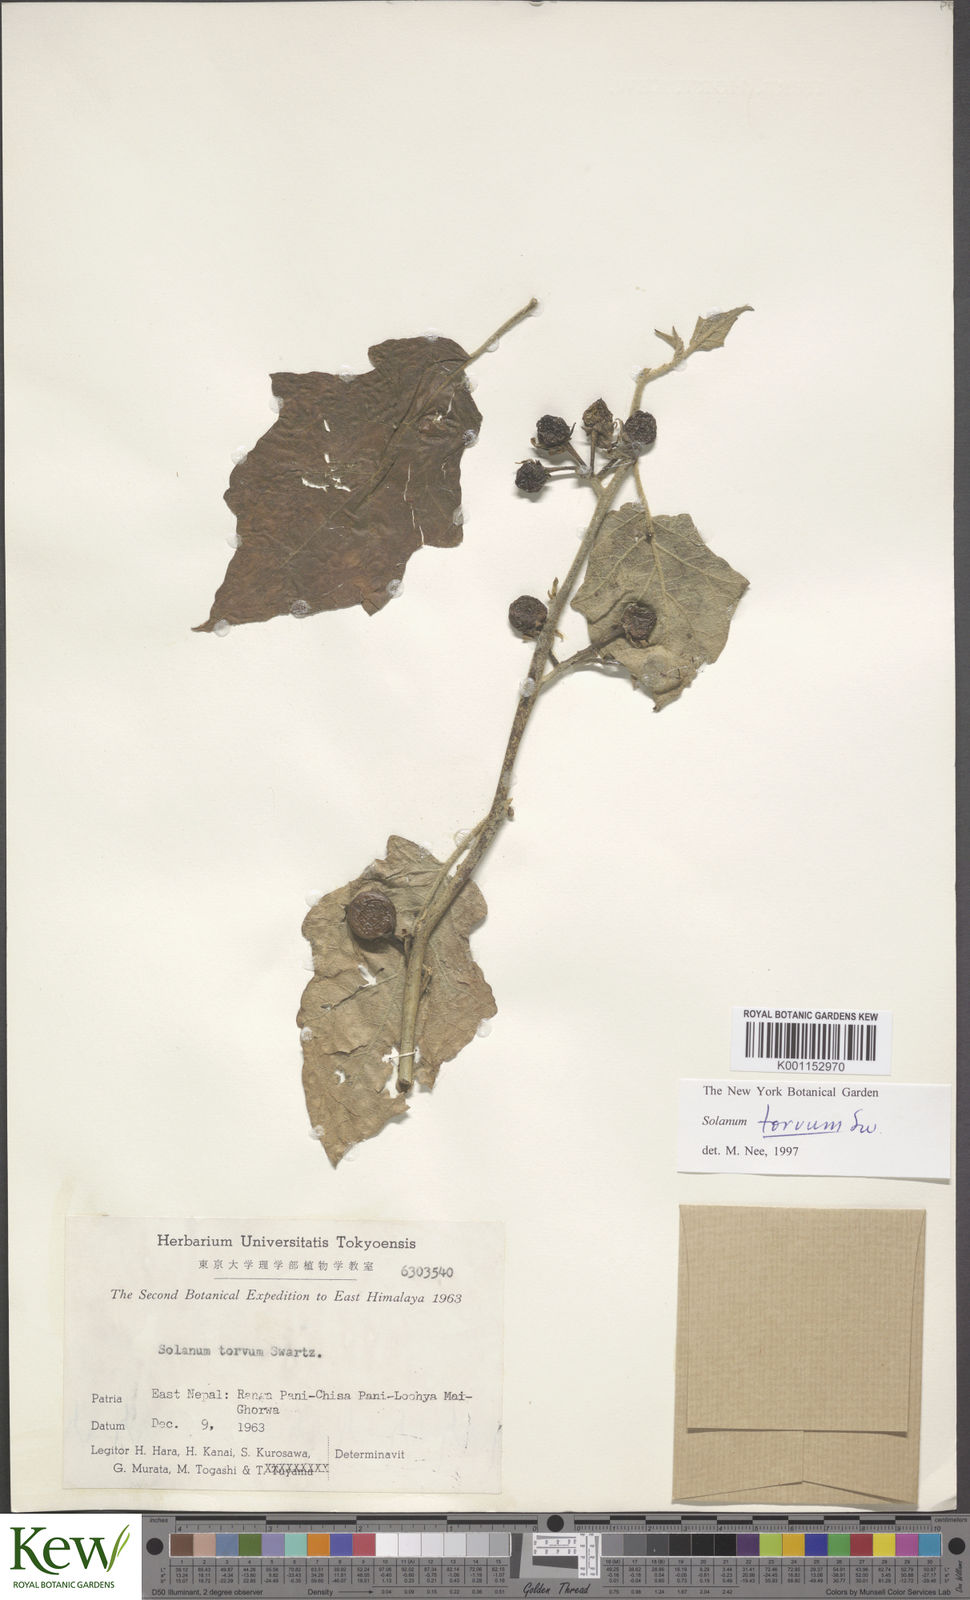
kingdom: Plantae
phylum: Tracheophyta
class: Magnoliopsida
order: Solanales
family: Solanaceae
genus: Solanum
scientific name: Solanum torvum
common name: Turkey berry
